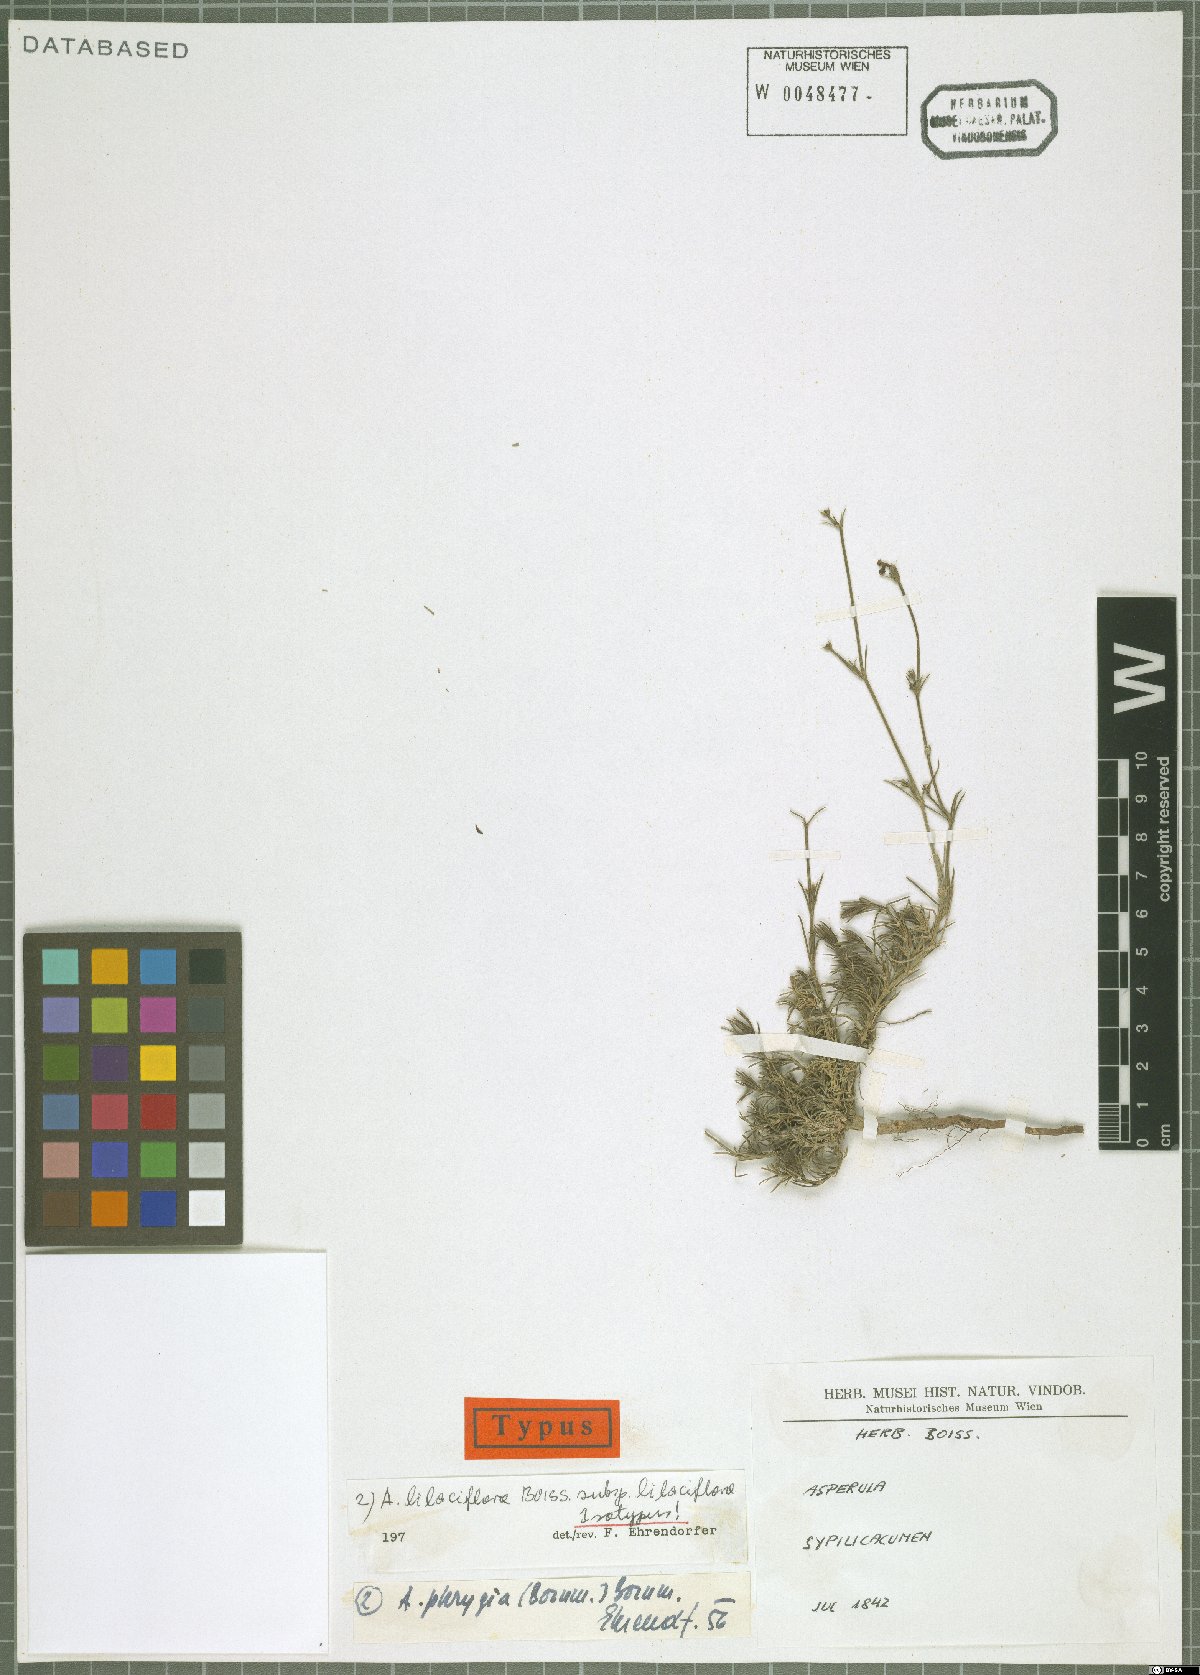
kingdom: Plantae
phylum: Tracheophyta
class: Magnoliopsida
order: Gentianales
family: Rubiaceae
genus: Cynanchica
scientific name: Cynanchica lilaciflora
